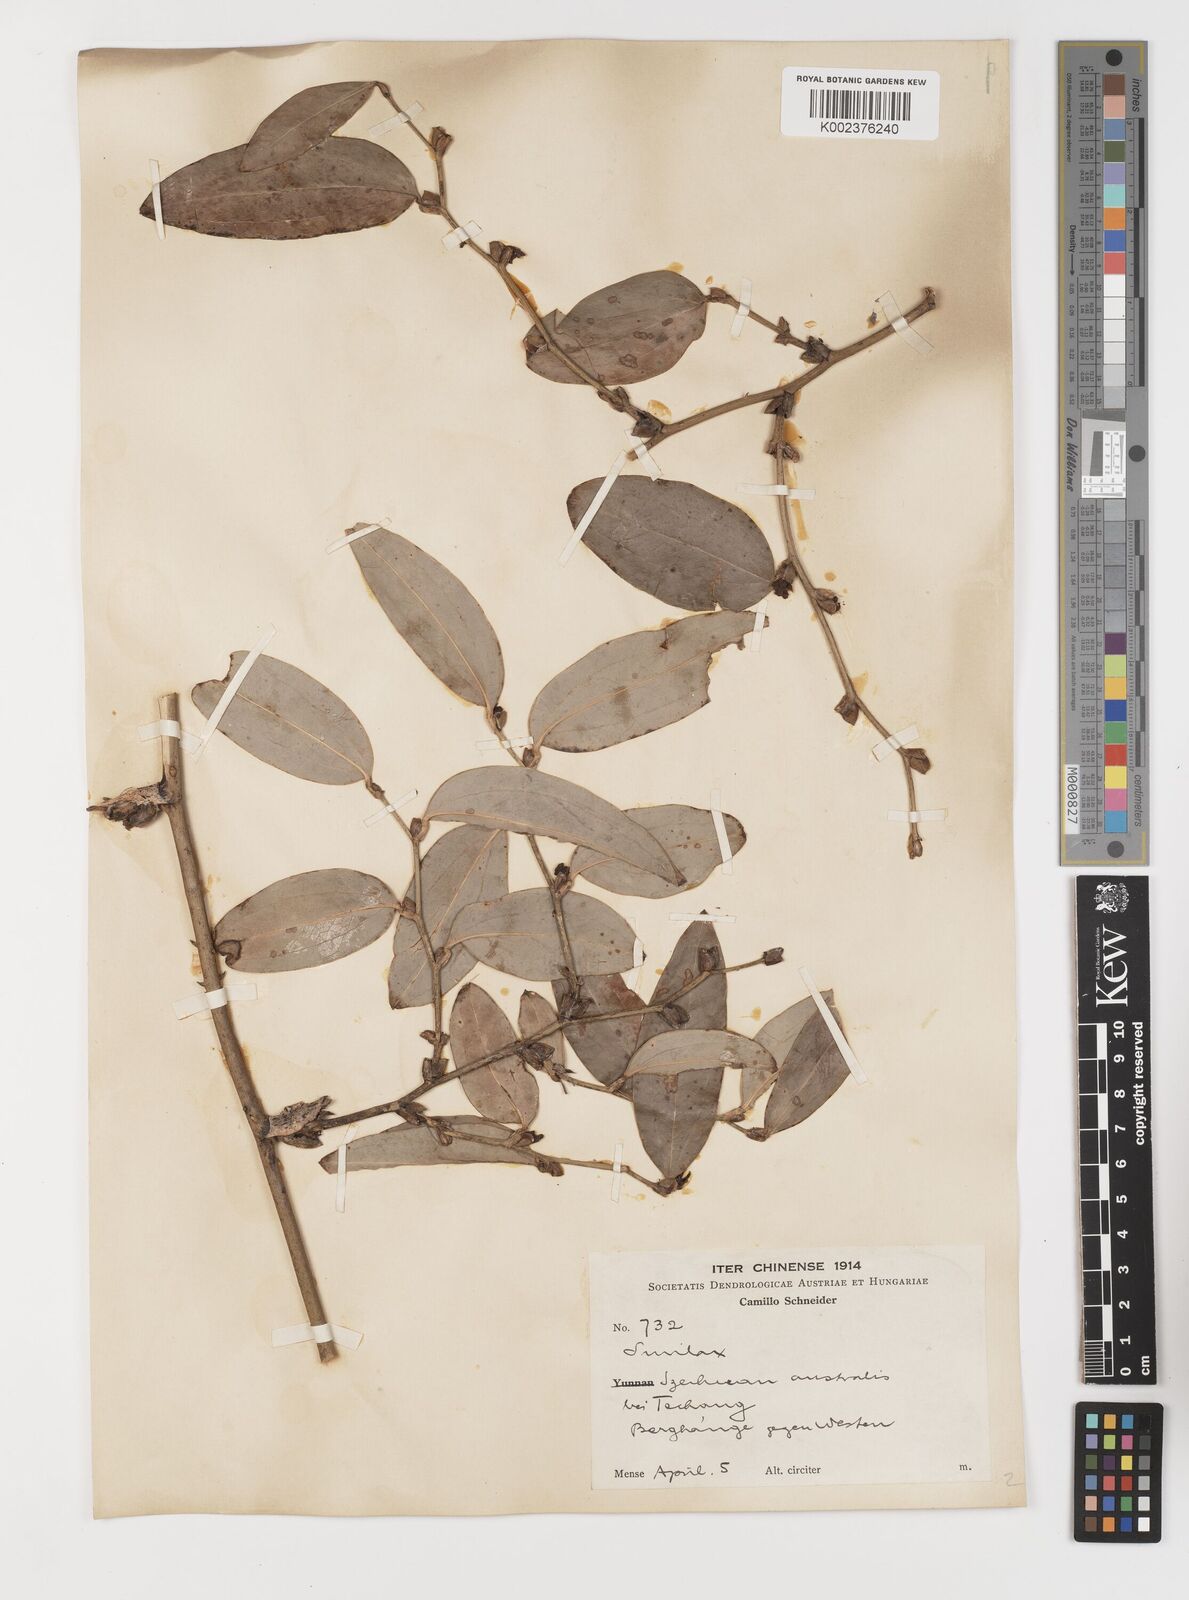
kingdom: Plantae
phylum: Tracheophyta
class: Liliopsida
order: Liliales
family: Smilacaceae
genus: Smilax
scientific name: Smilax ferox
